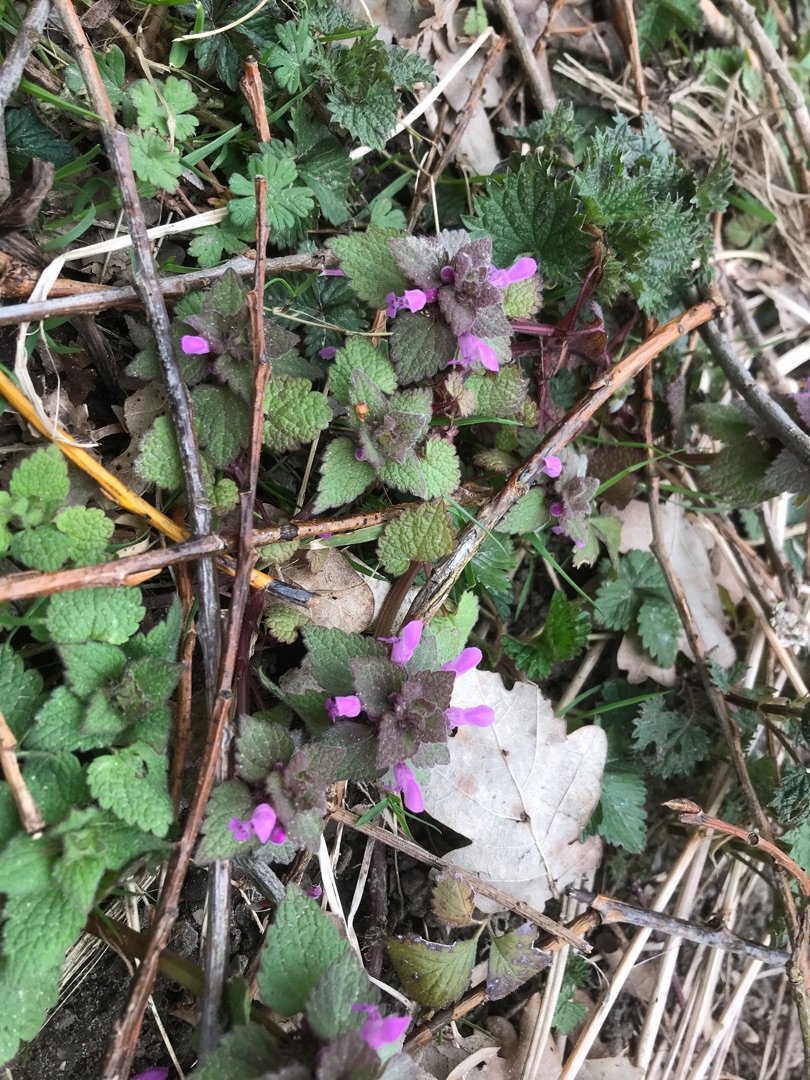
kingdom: Plantae
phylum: Tracheophyta
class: Magnoliopsida
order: Lamiales
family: Lamiaceae
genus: Lamium
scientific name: Lamium purpureum
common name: Rød tvetand
